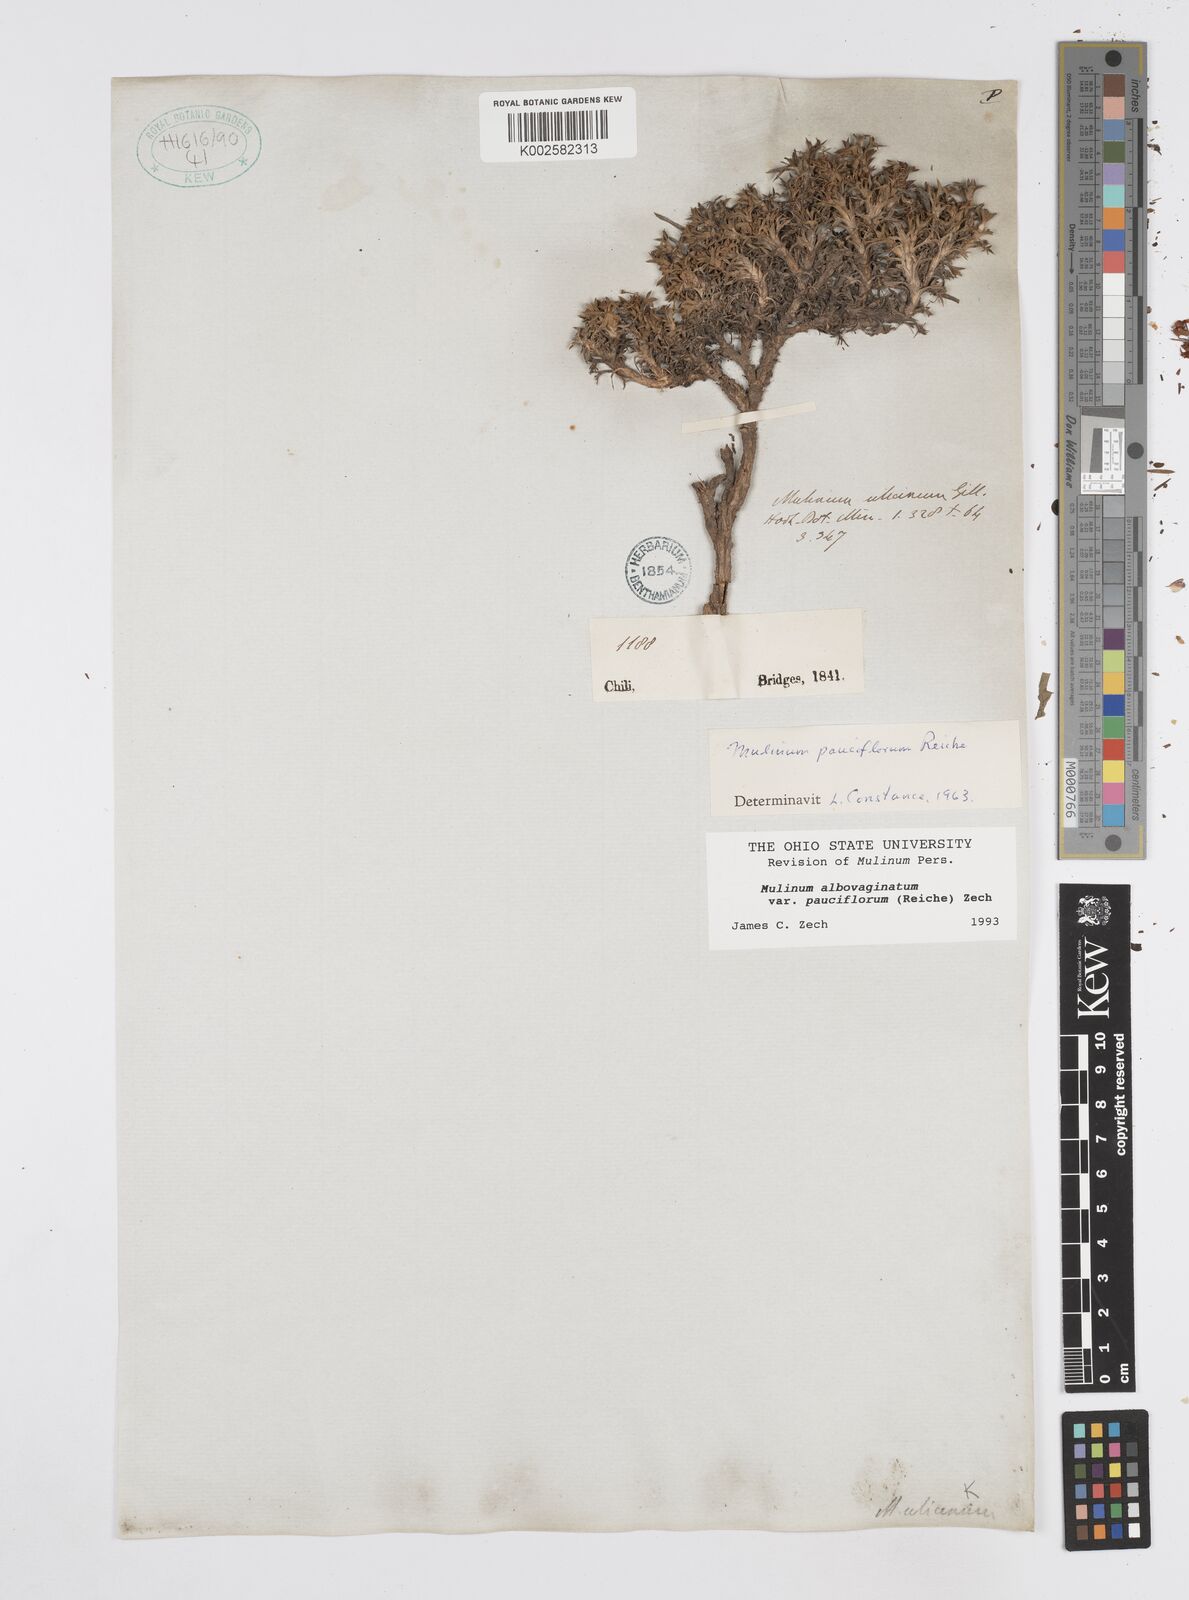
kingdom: Plantae
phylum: Tracheophyta
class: Magnoliopsida
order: Apiales
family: Apiaceae
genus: Azorella
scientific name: Azorella albovaginata
